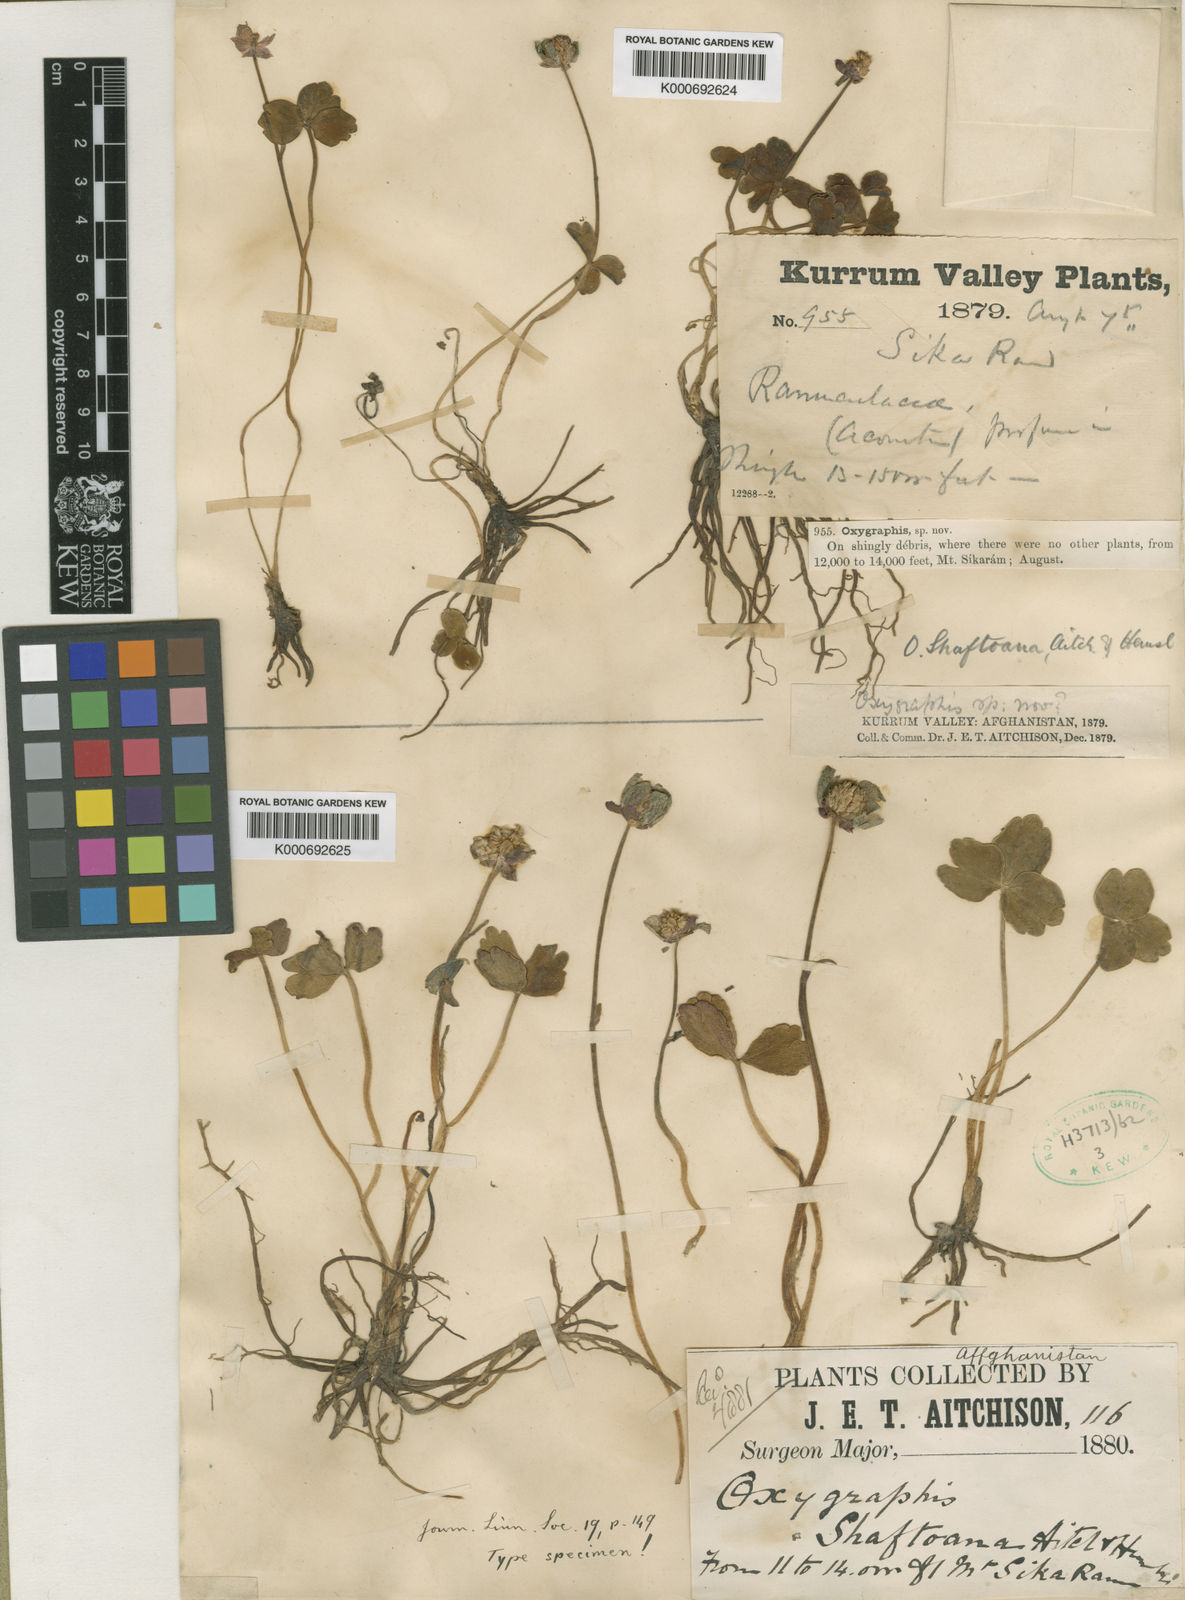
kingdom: Plantae
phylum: Tracheophyta
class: Magnoliopsida
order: Ranunculales
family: Ranunculaceae
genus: Ranunculus
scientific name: Ranunculus
